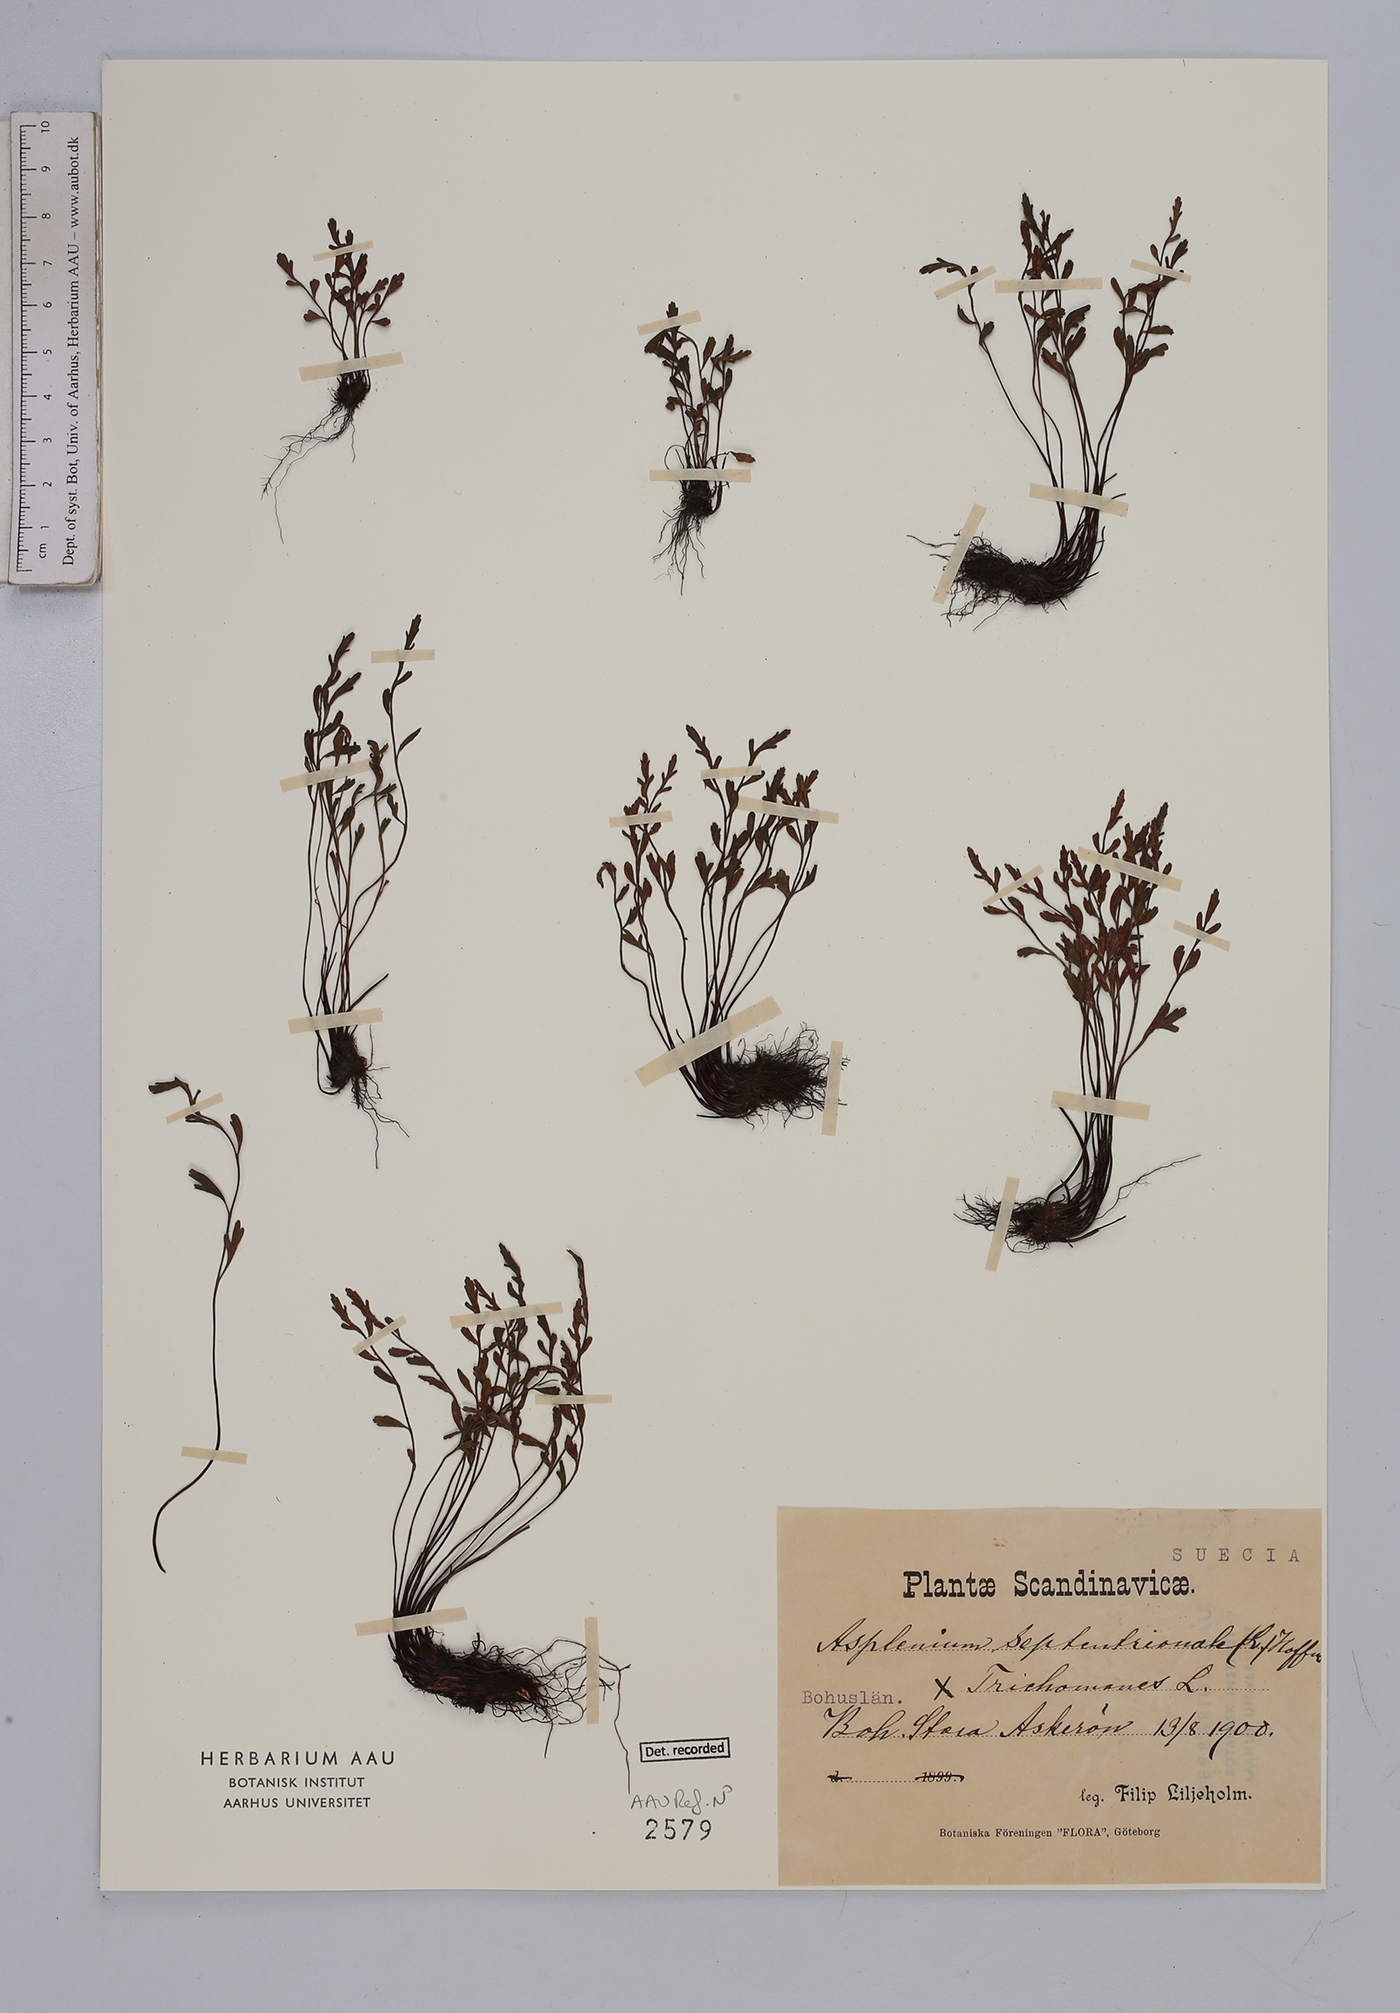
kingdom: Plantae
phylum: Tracheophyta
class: Polypodiopsida
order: Polypodiales
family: Aspleniaceae
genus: Asplenium
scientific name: Asplenium
